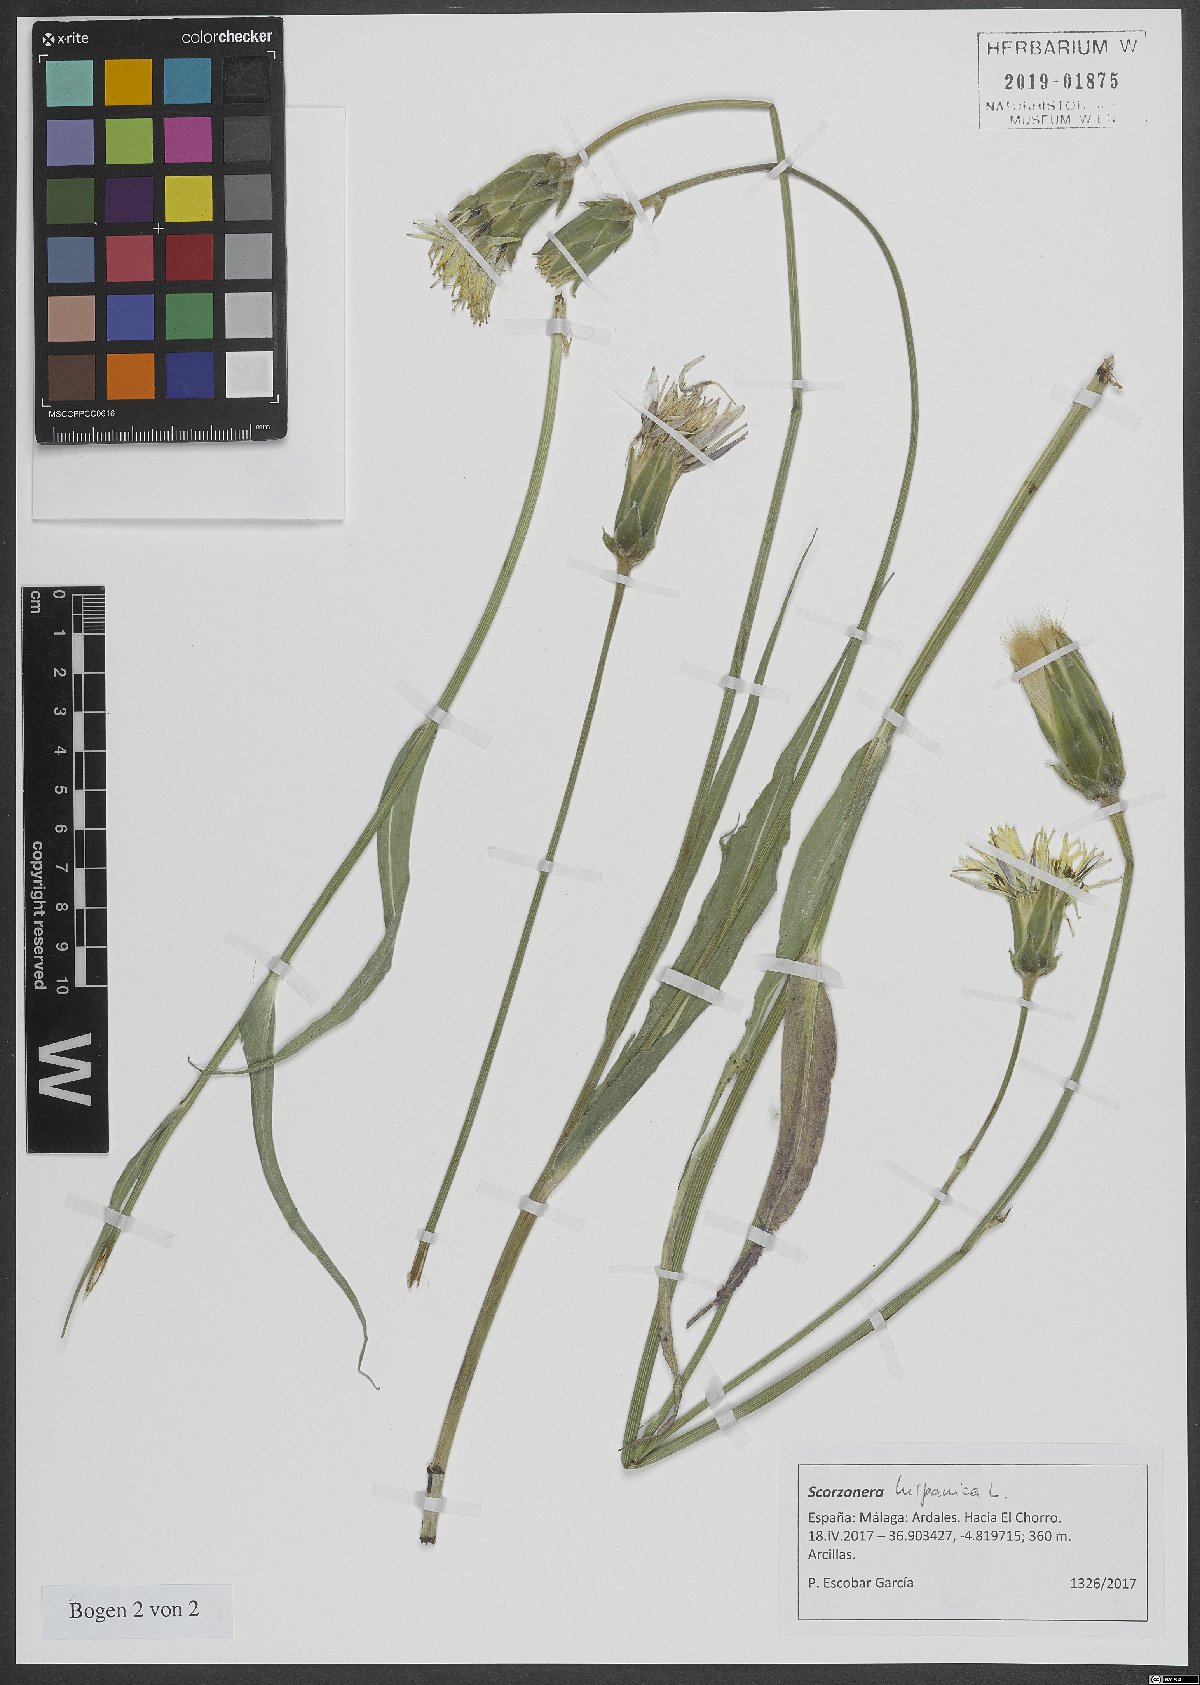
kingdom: Plantae
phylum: Tracheophyta
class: Magnoliopsida
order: Asterales
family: Asteraceae
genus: Pseudopodospermum
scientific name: Pseudopodospermum hispanicum
